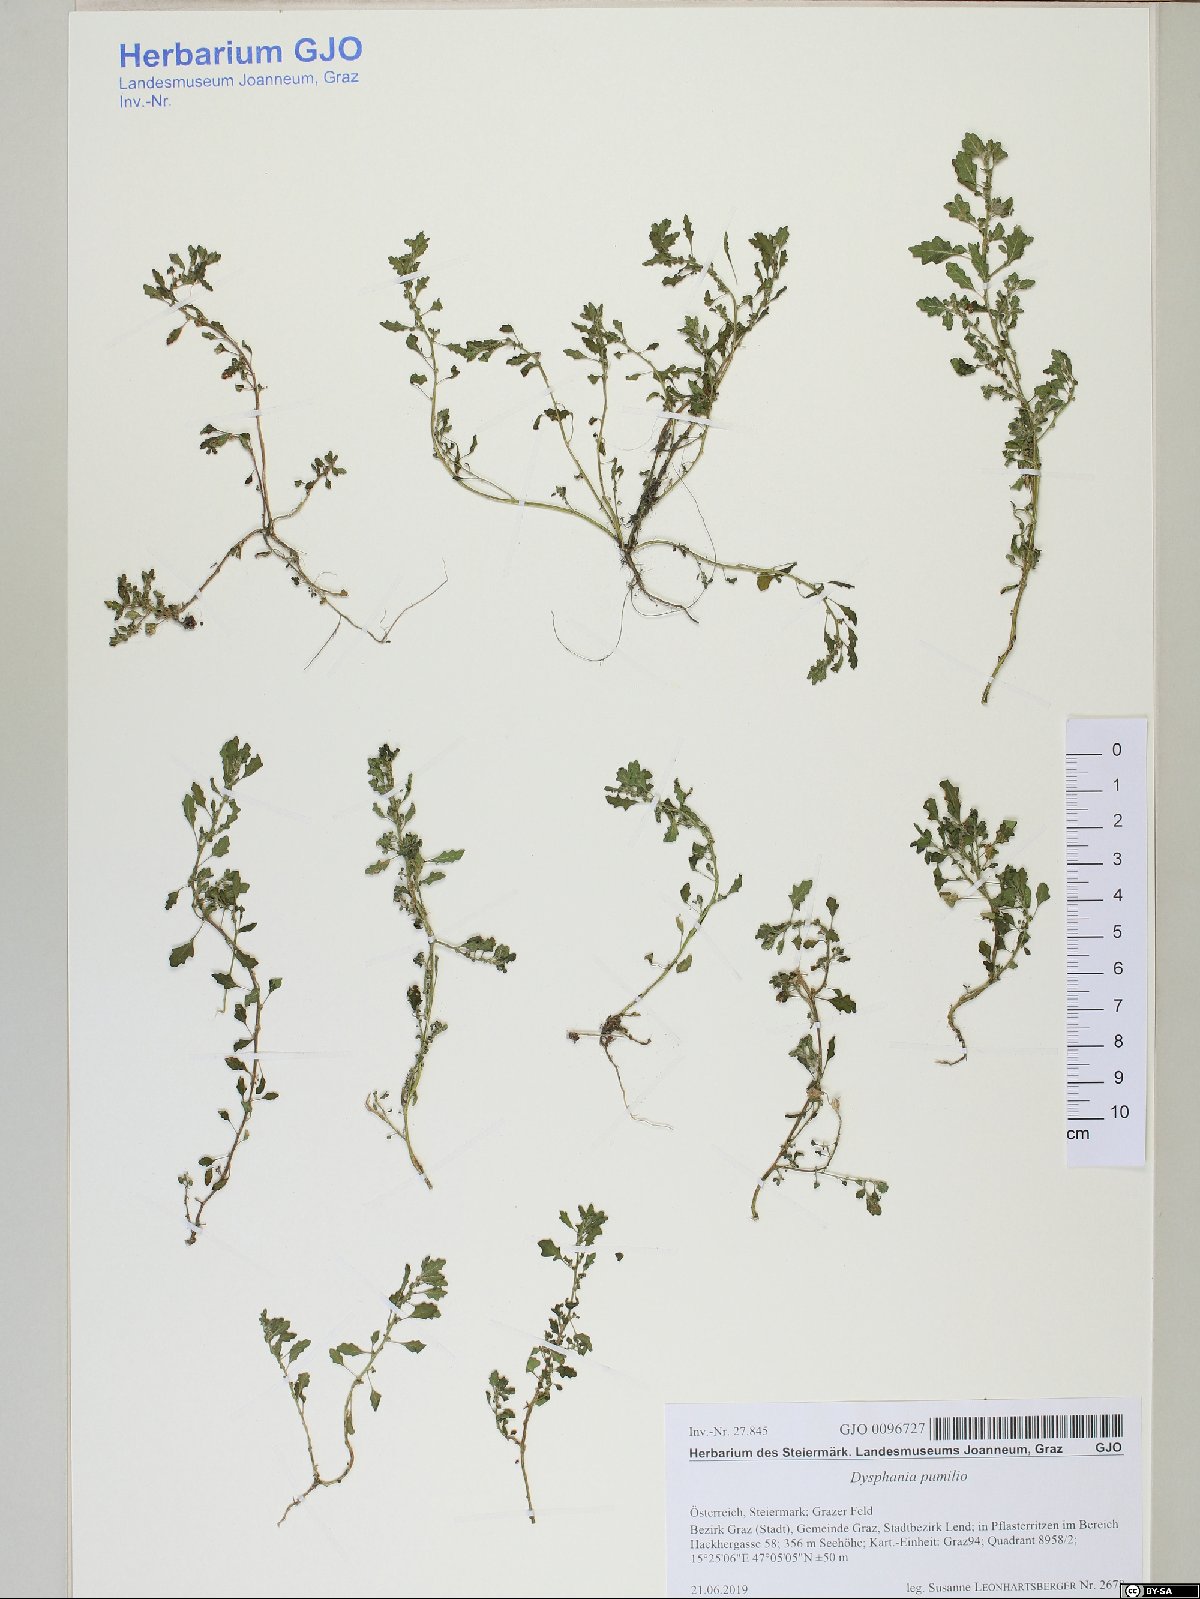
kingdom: Plantae
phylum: Tracheophyta
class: Magnoliopsida
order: Caryophyllales
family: Amaranthaceae
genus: Dysphania
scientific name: Dysphania pumilio
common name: Clammy goosefoot
